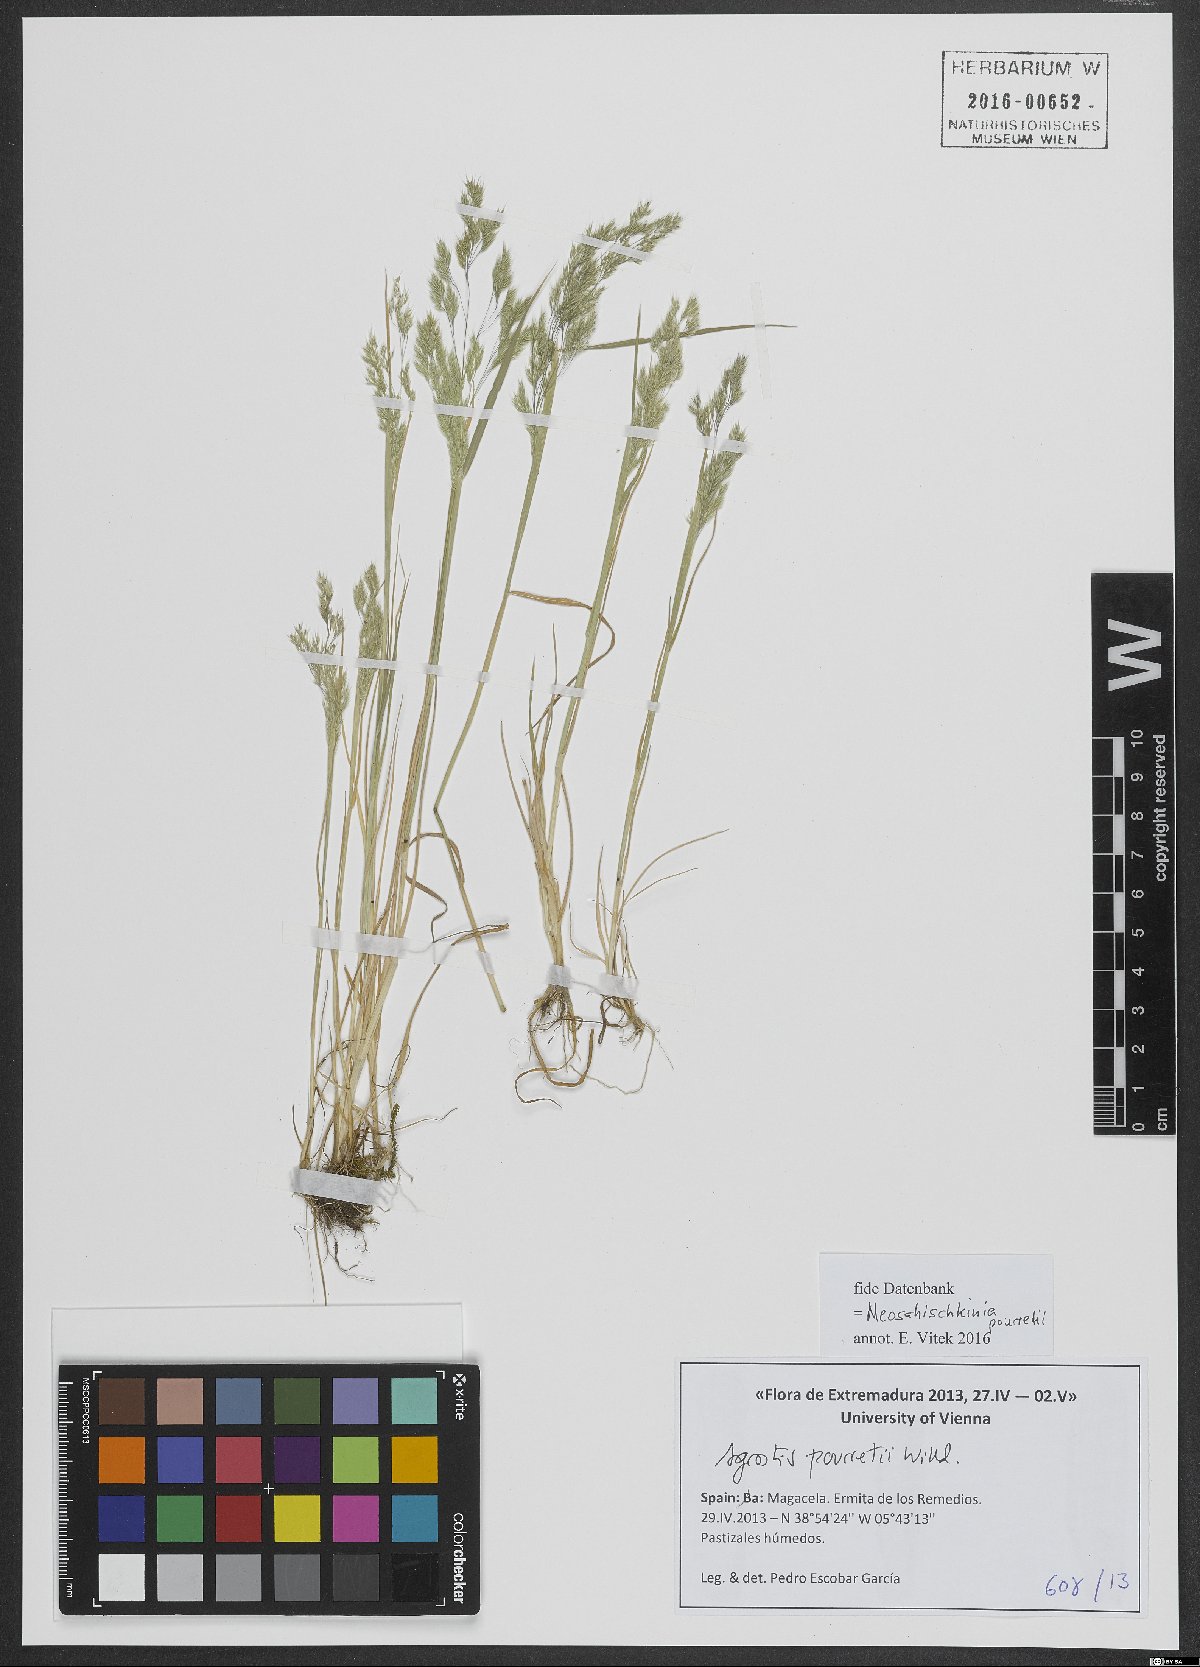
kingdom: Plantae
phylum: Tracheophyta
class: Liliopsida
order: Poales
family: Poaceae
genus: Agrostis
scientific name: Agrostis pourretii
